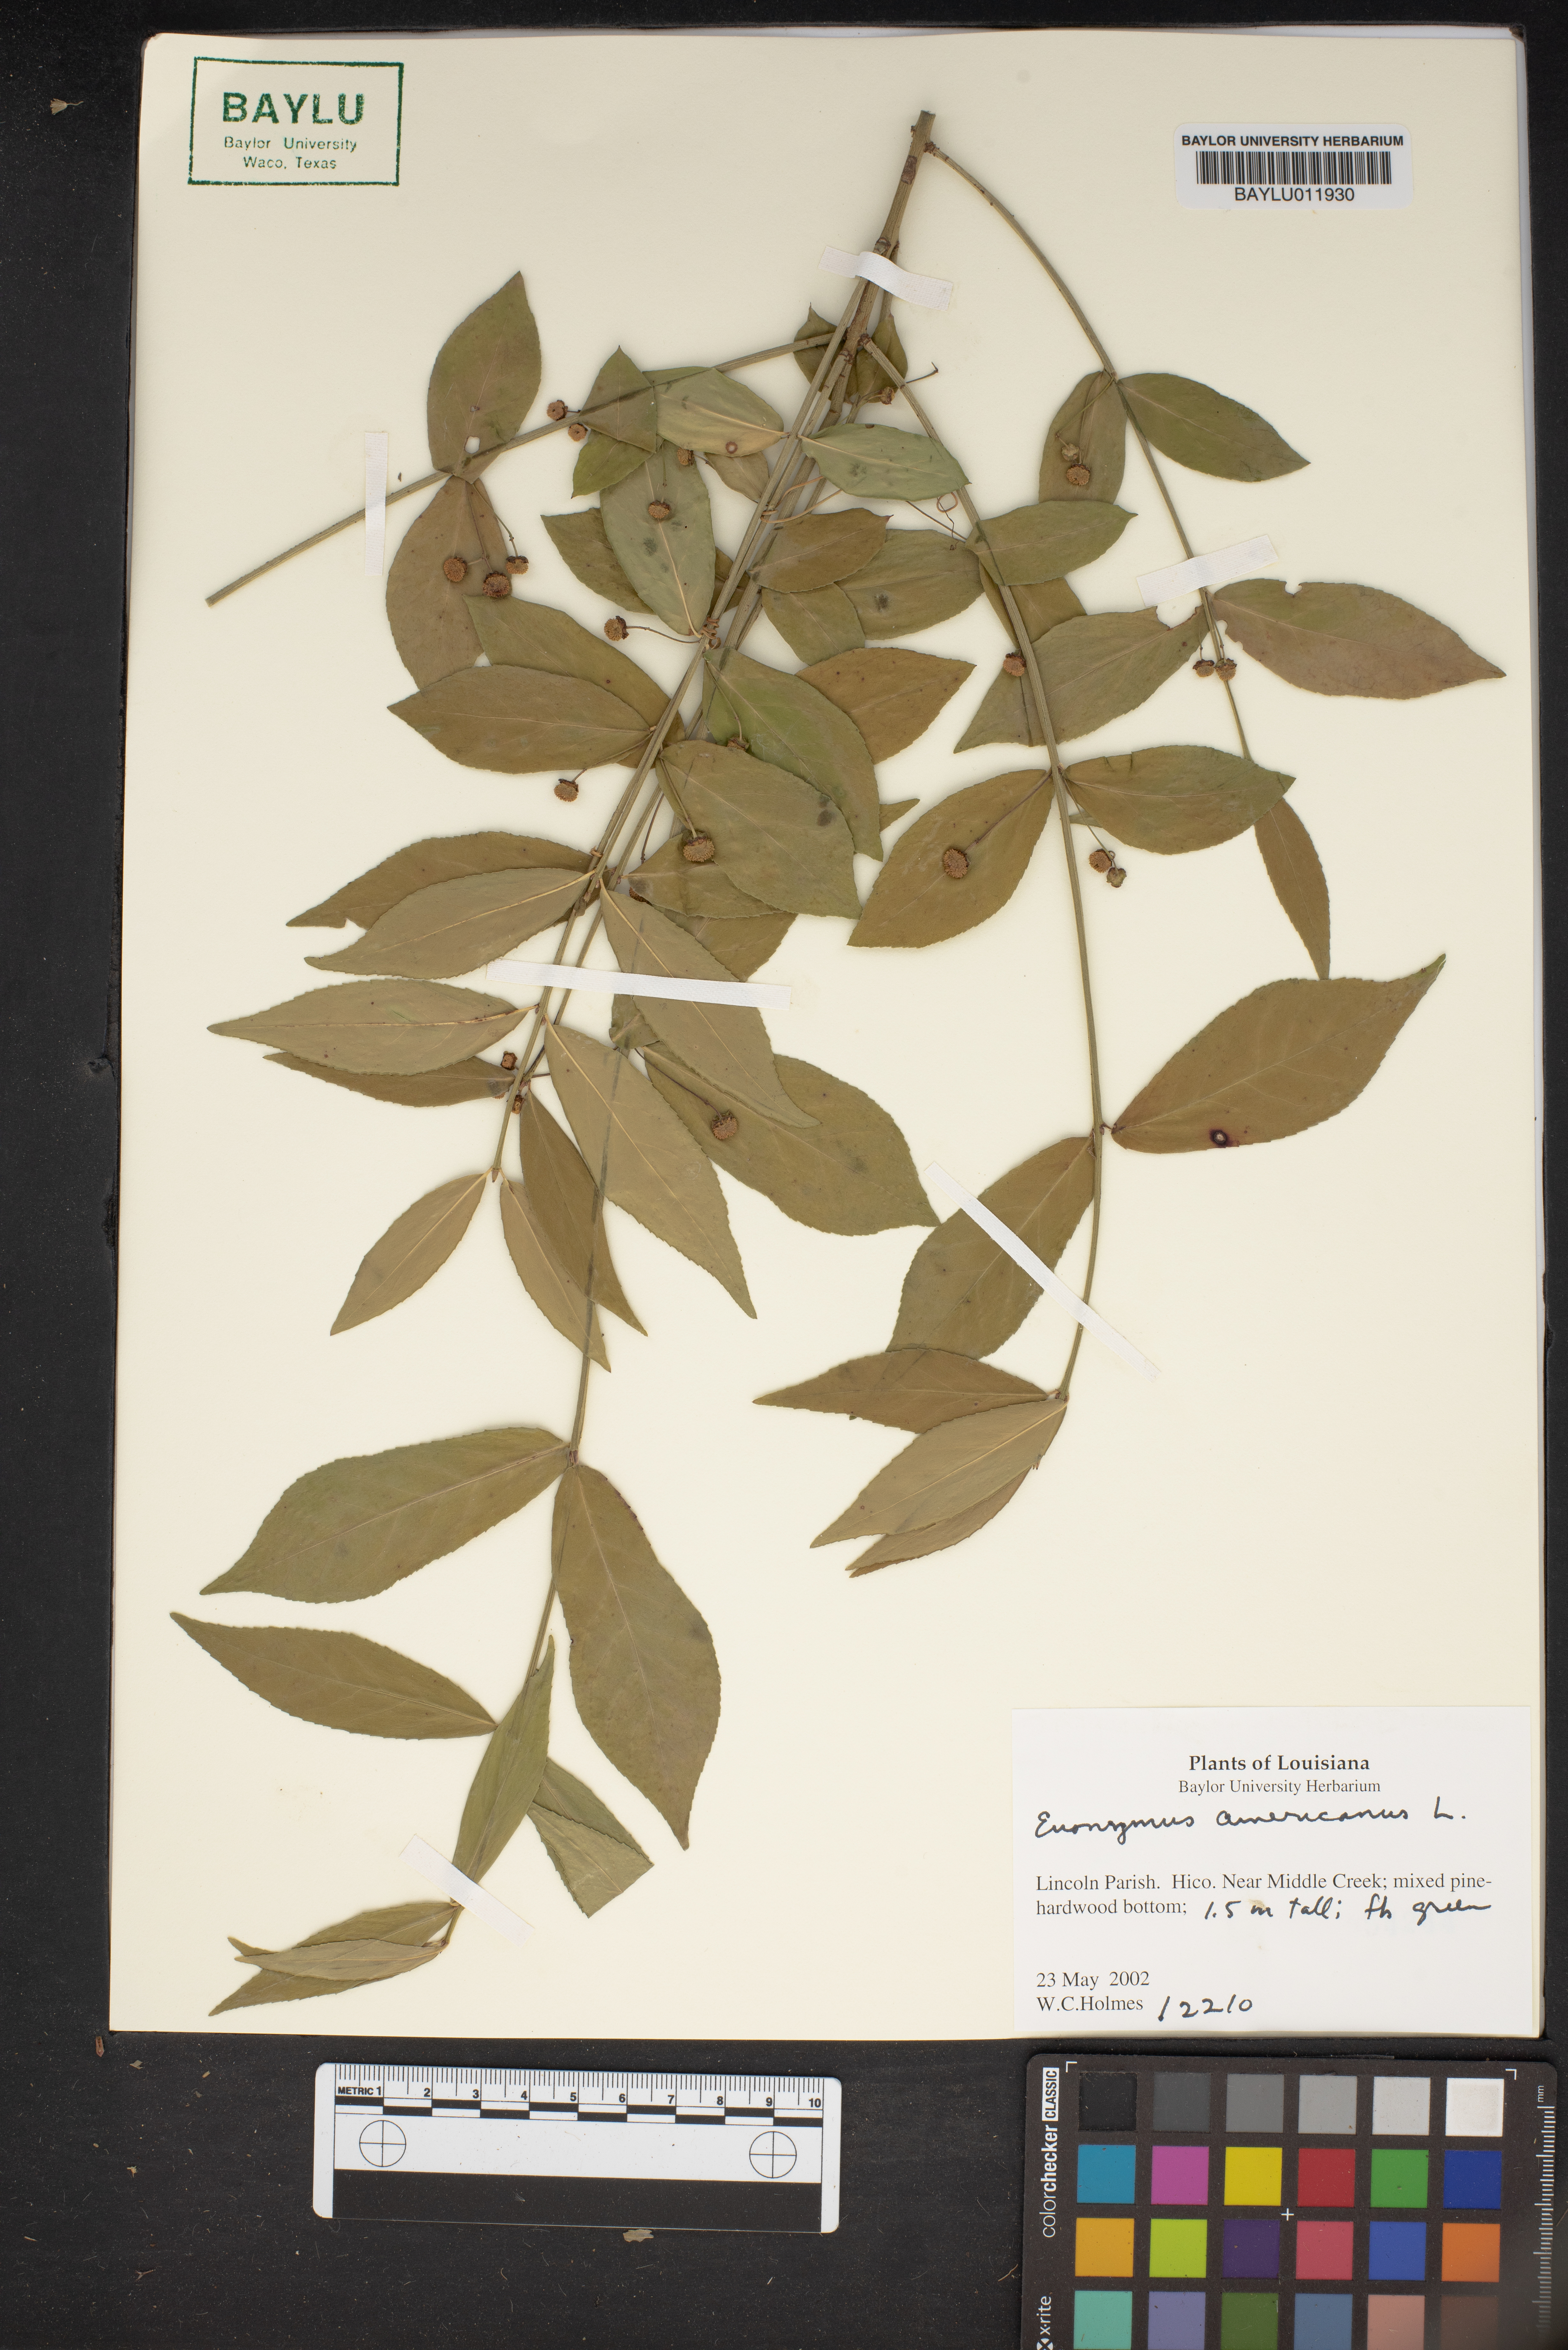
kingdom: Plantae
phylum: Tracheophyta
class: Magnoliopsida
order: Celastrales
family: Celastraceae
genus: Euonymus
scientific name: Euonymus americanus
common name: Bursting-heart
